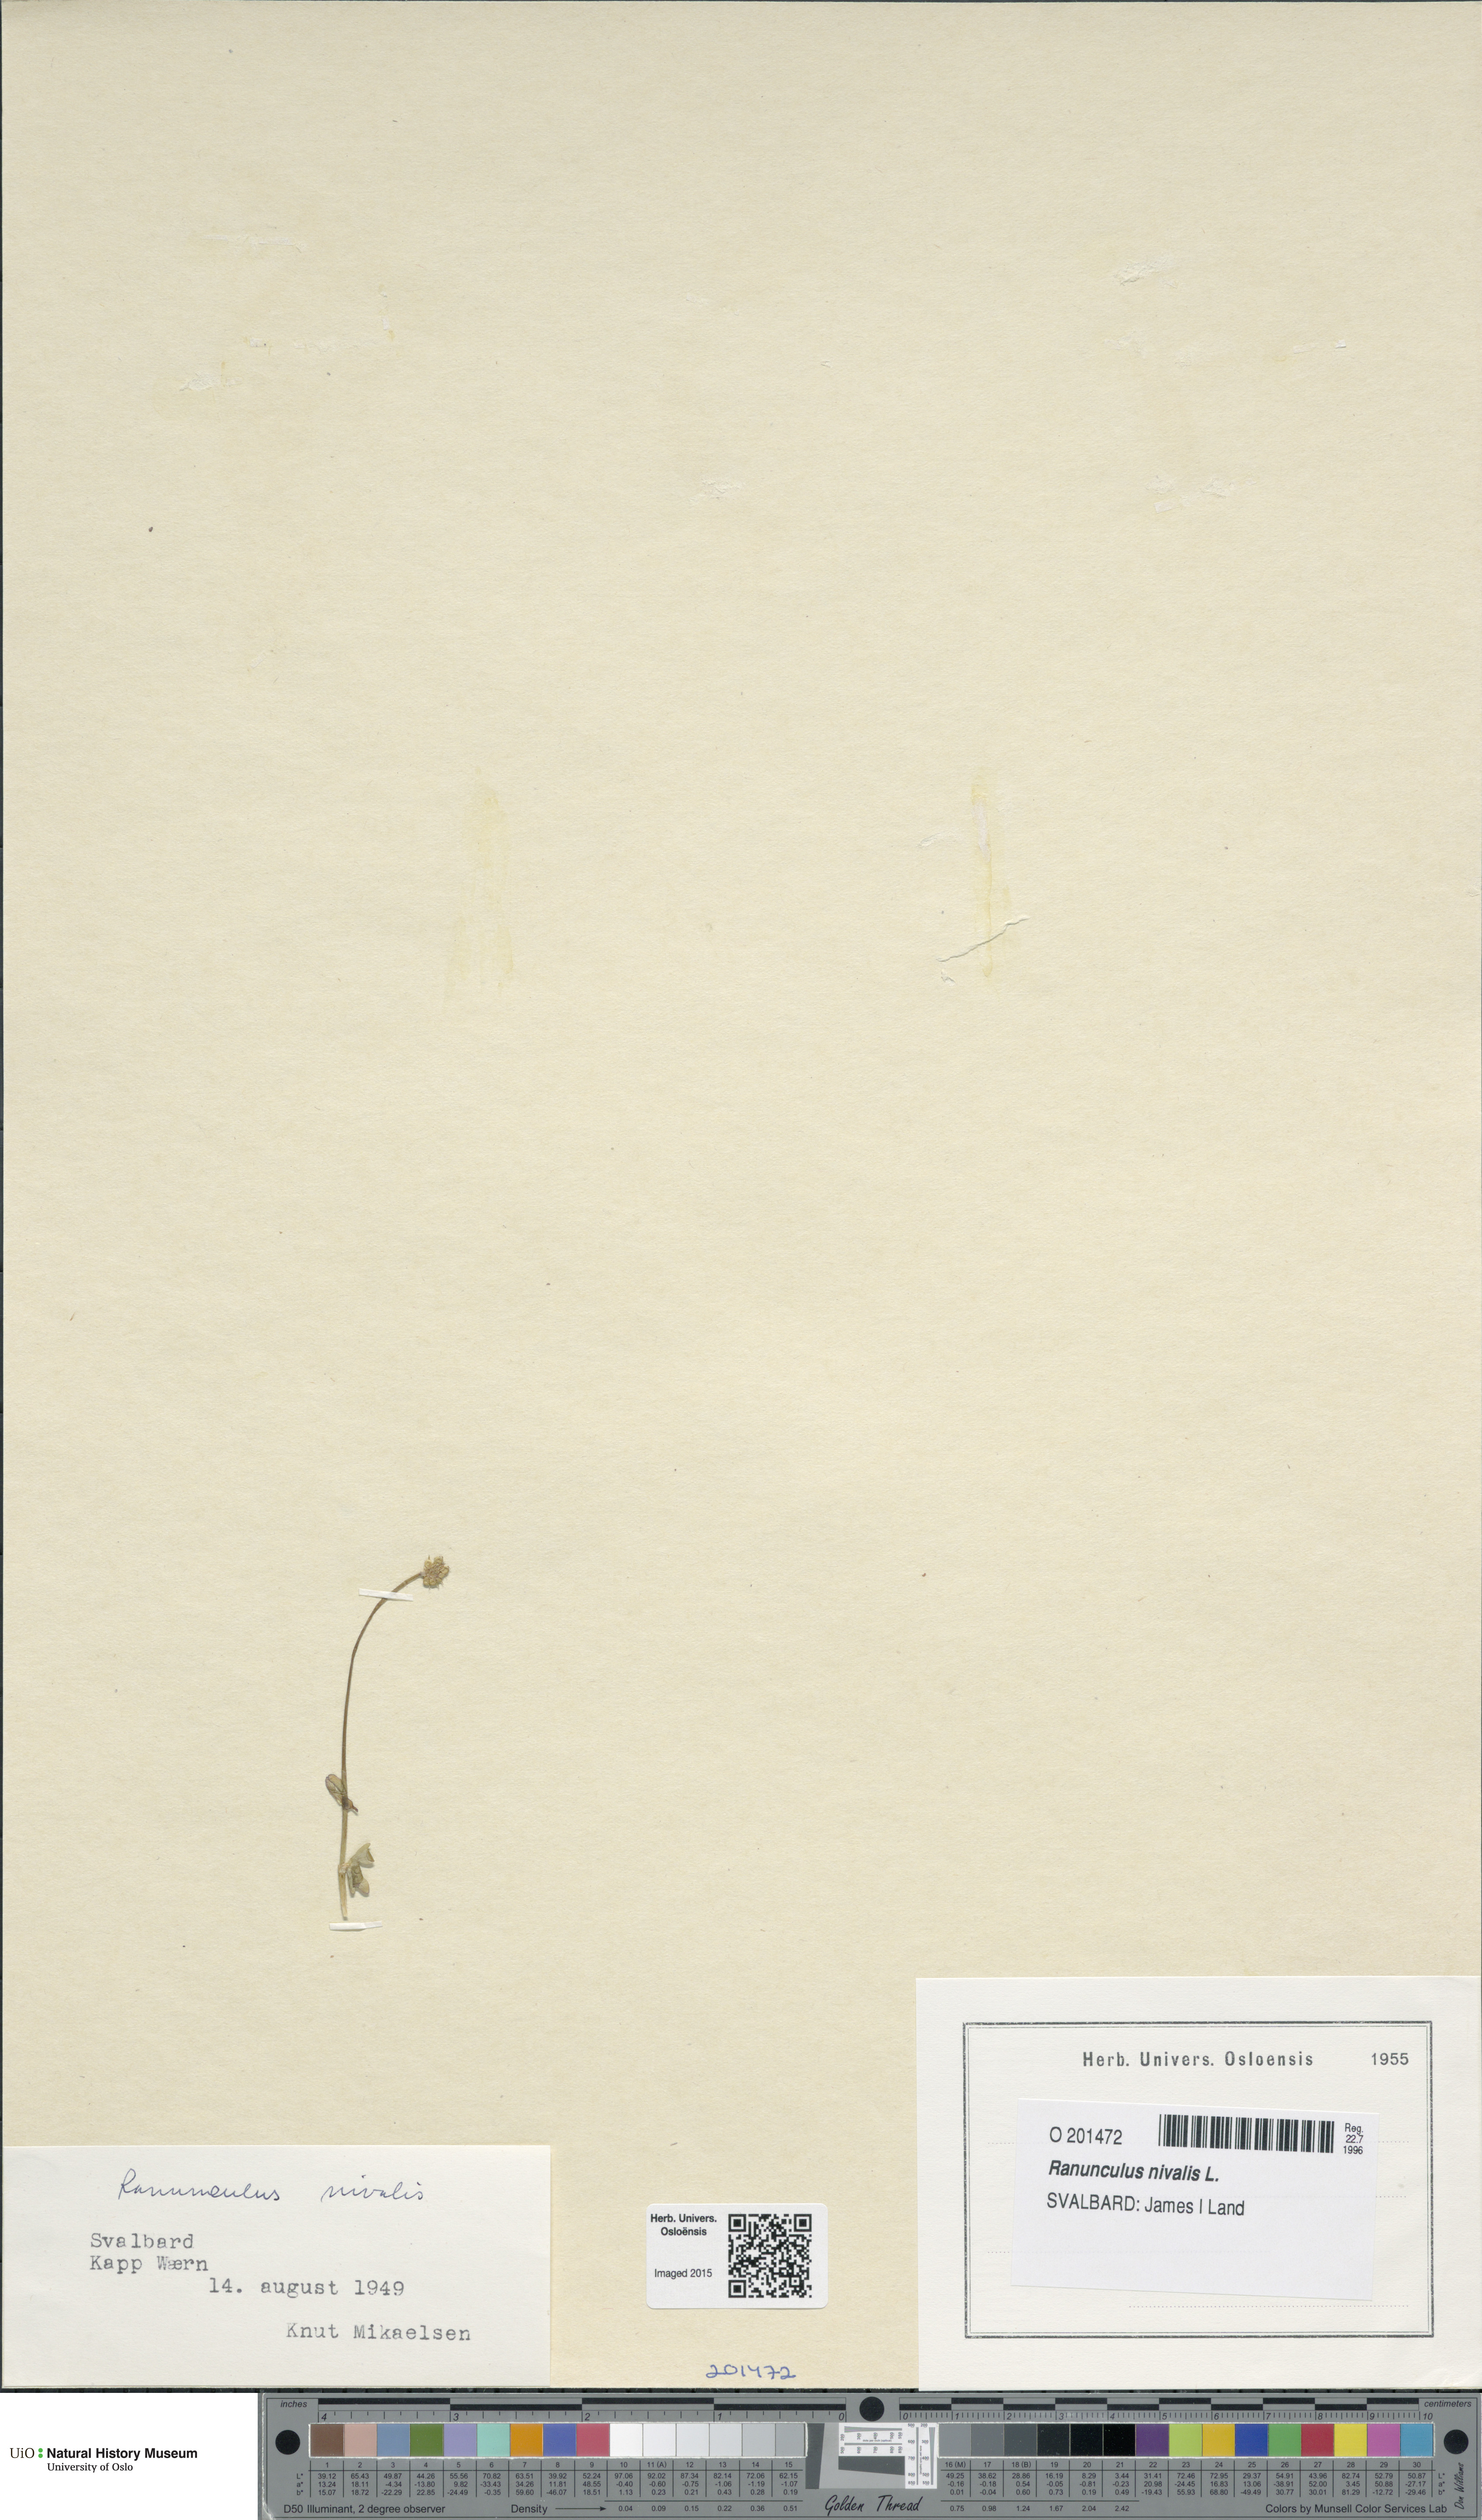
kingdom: Plantae
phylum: Tracheophyta
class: Magnoliopsida
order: Ranunculales
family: Ranunculaceae
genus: Ranunculus
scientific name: Ranunculus nivalis
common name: Snow buttercup
